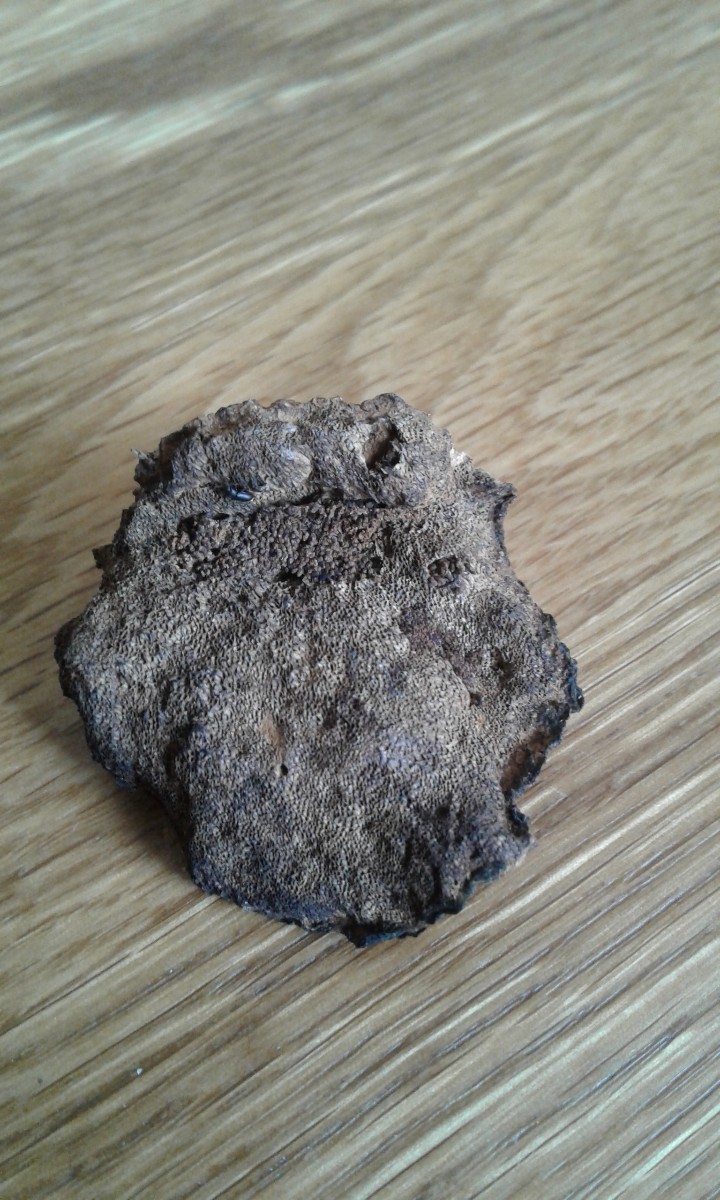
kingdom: Fungi
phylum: Basidiomycota
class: Agaricomycetes
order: Polyporales
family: Ischnodermataceae
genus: Ischnoderma
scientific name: Ischnoderma benzoinum
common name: gran-tjæreporesvamp
